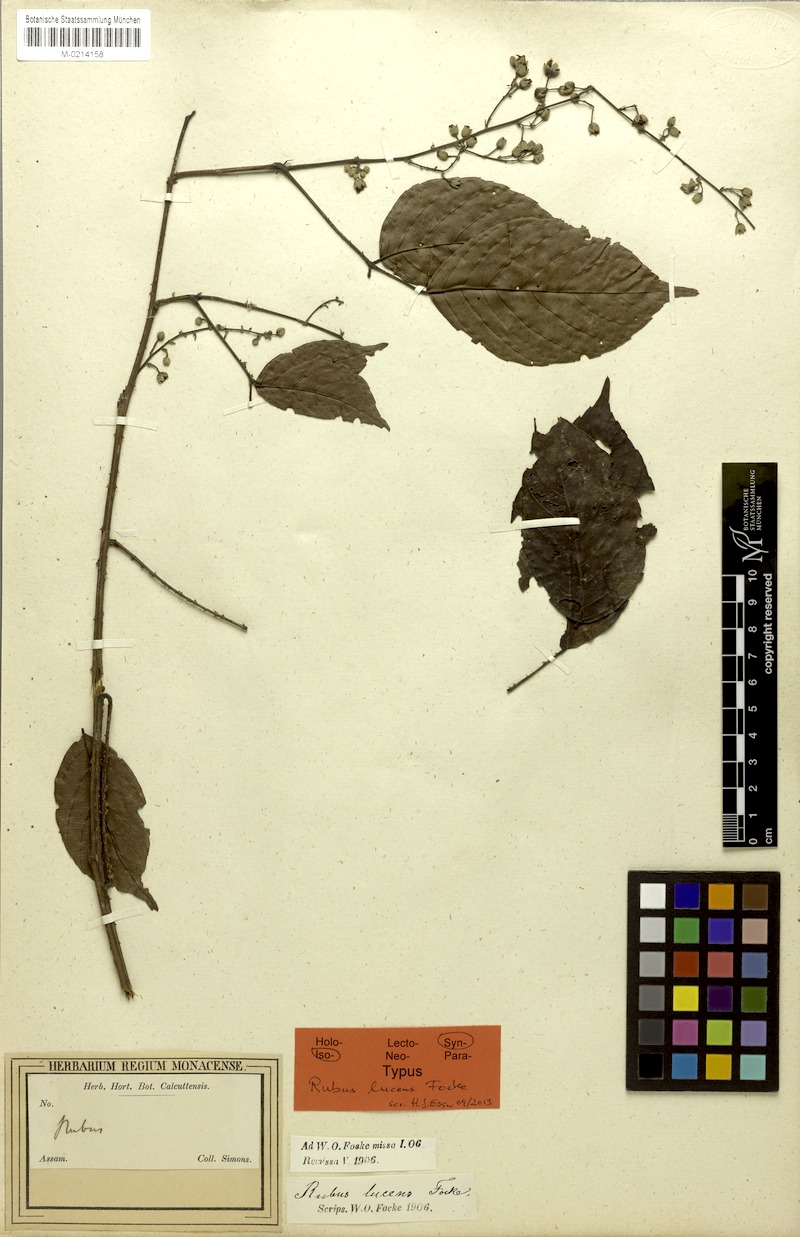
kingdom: Plantae
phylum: Tracheophyta
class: Magnoliopsida
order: Rosales
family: Rosaceae
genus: Rubus
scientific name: Rubus lucens
